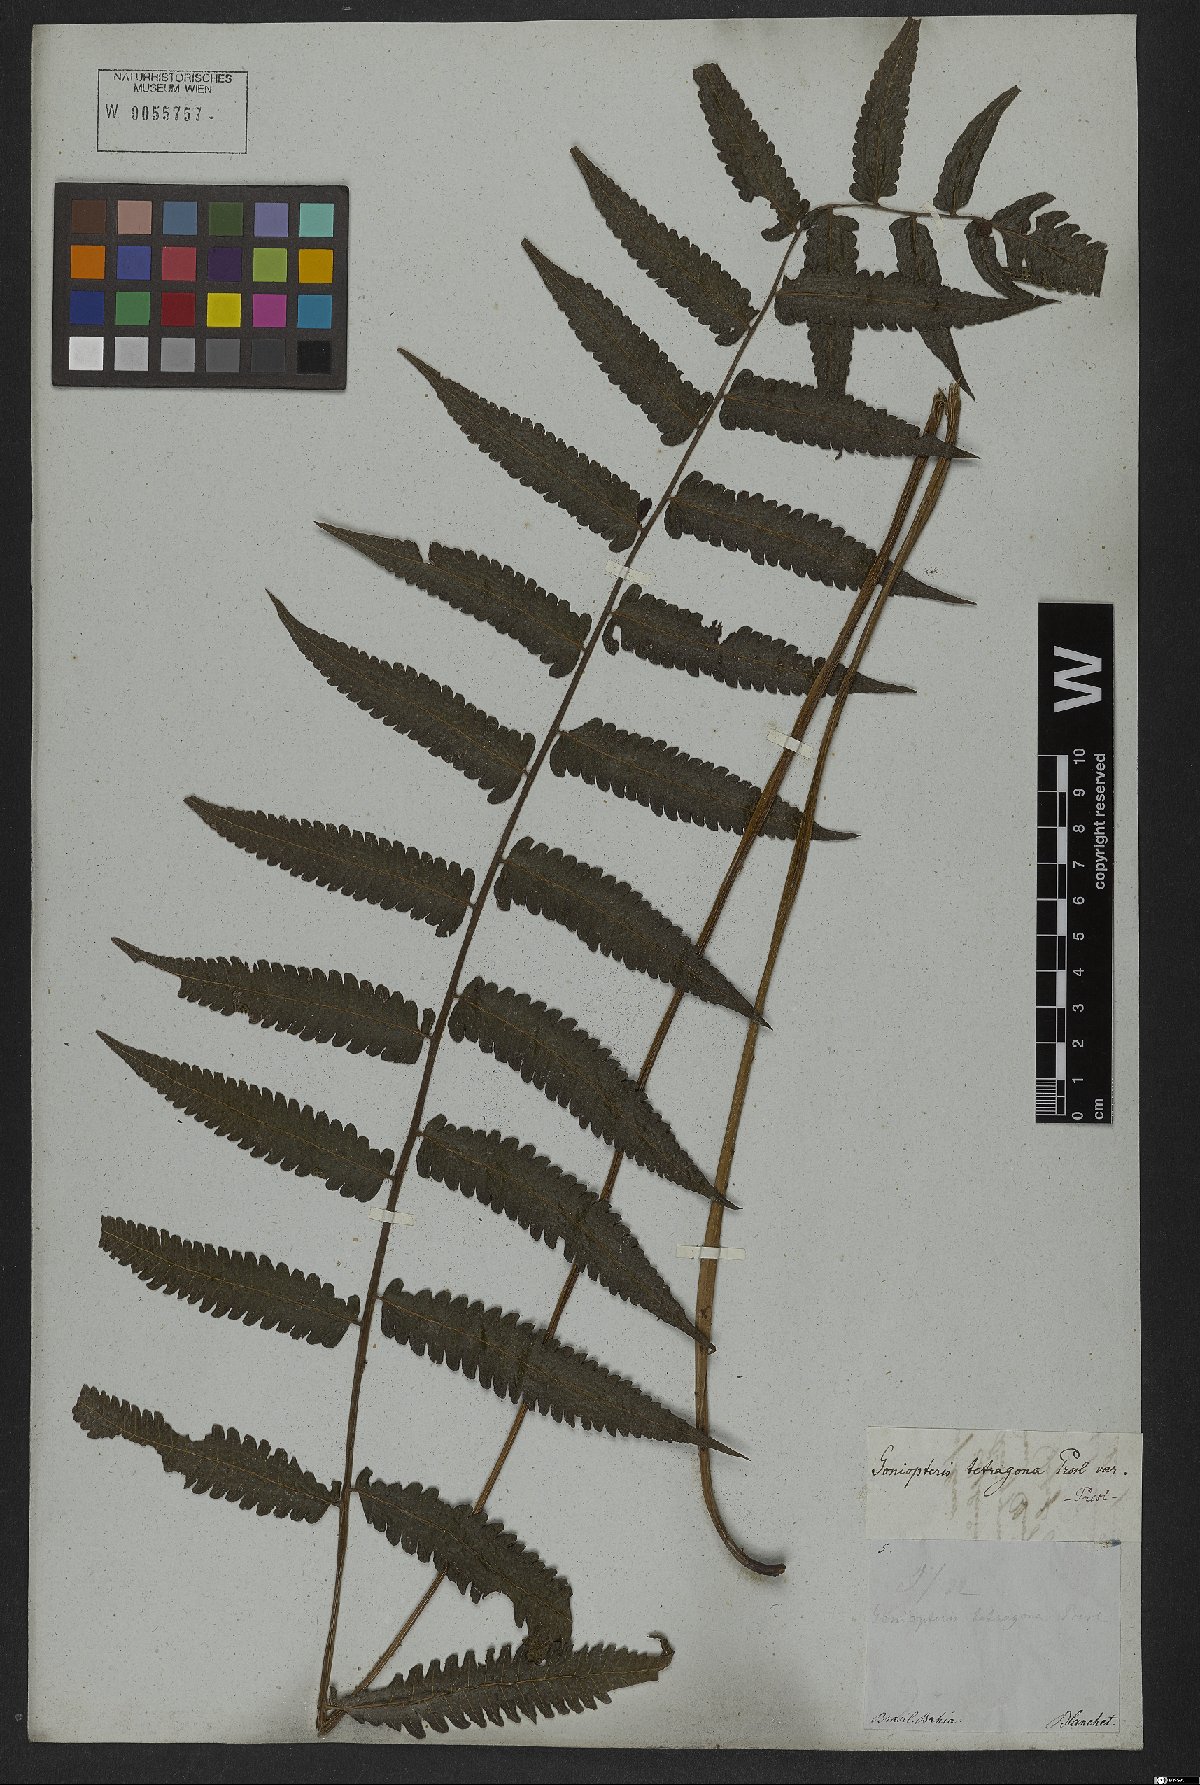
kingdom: Plantae
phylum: Tracheophyta
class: Polypodiopsida
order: Polypodiales
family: Thelypteridaceae
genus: Goniopteris
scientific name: Goniopteris lugubris
